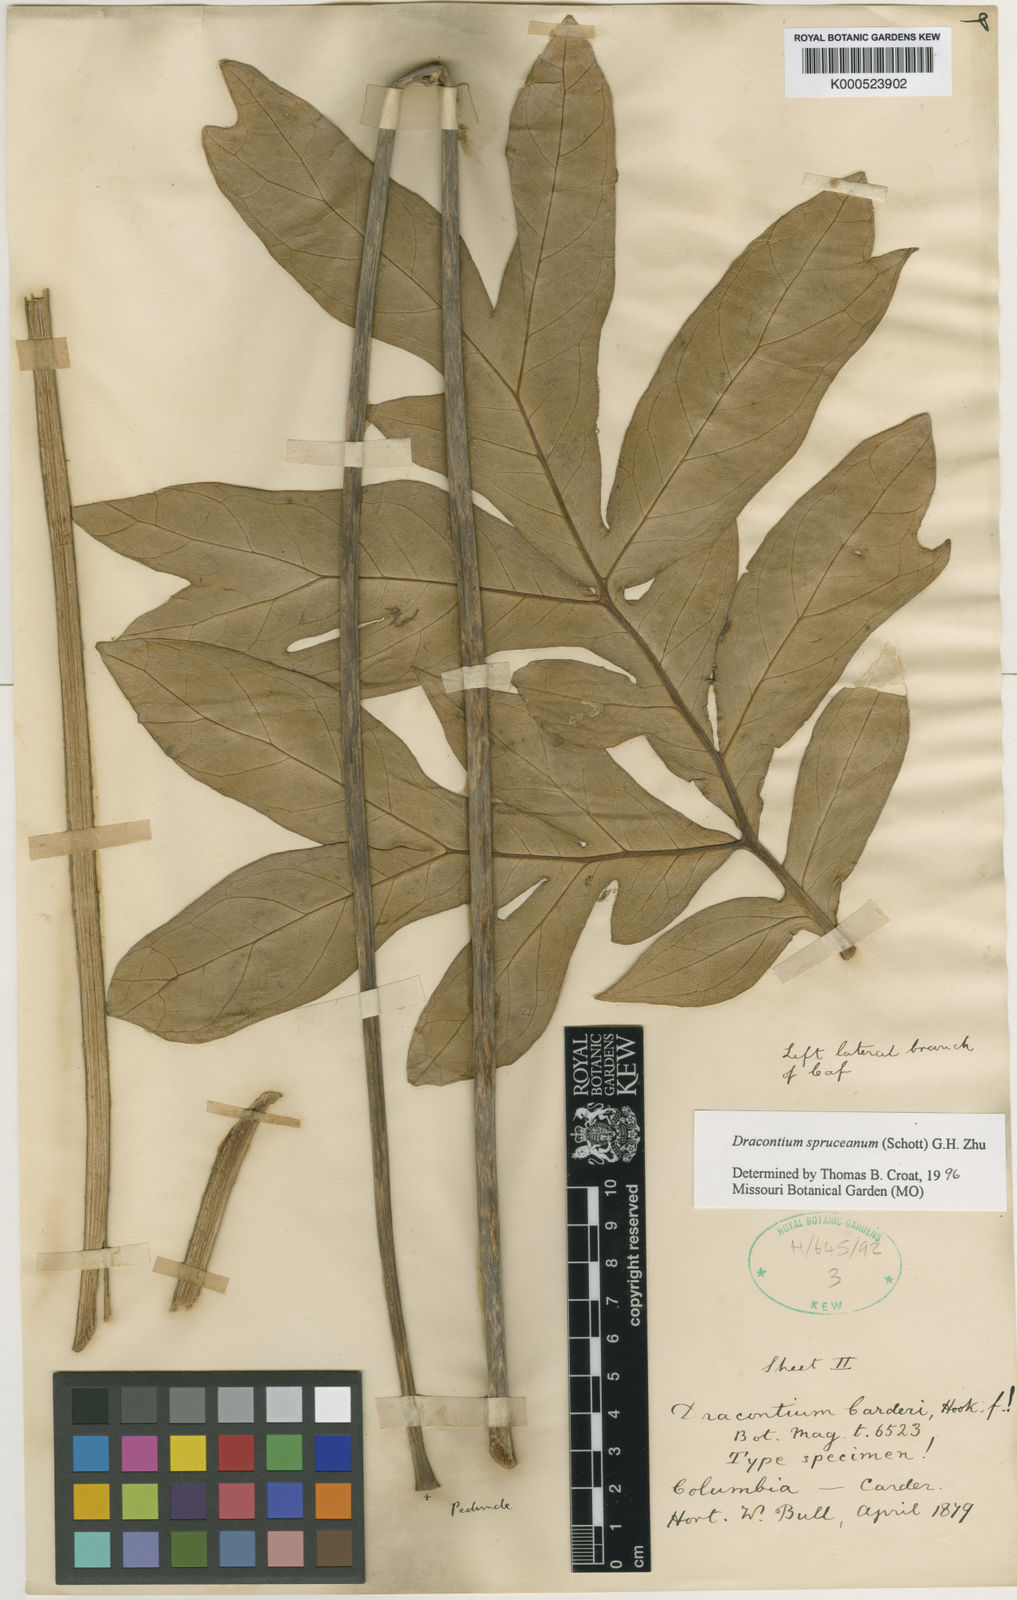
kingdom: Plantae
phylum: Tracheophyta
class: Liliopsida
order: Alismatales
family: Araceae
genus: Dracontium
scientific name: Dracontium spruceanum
